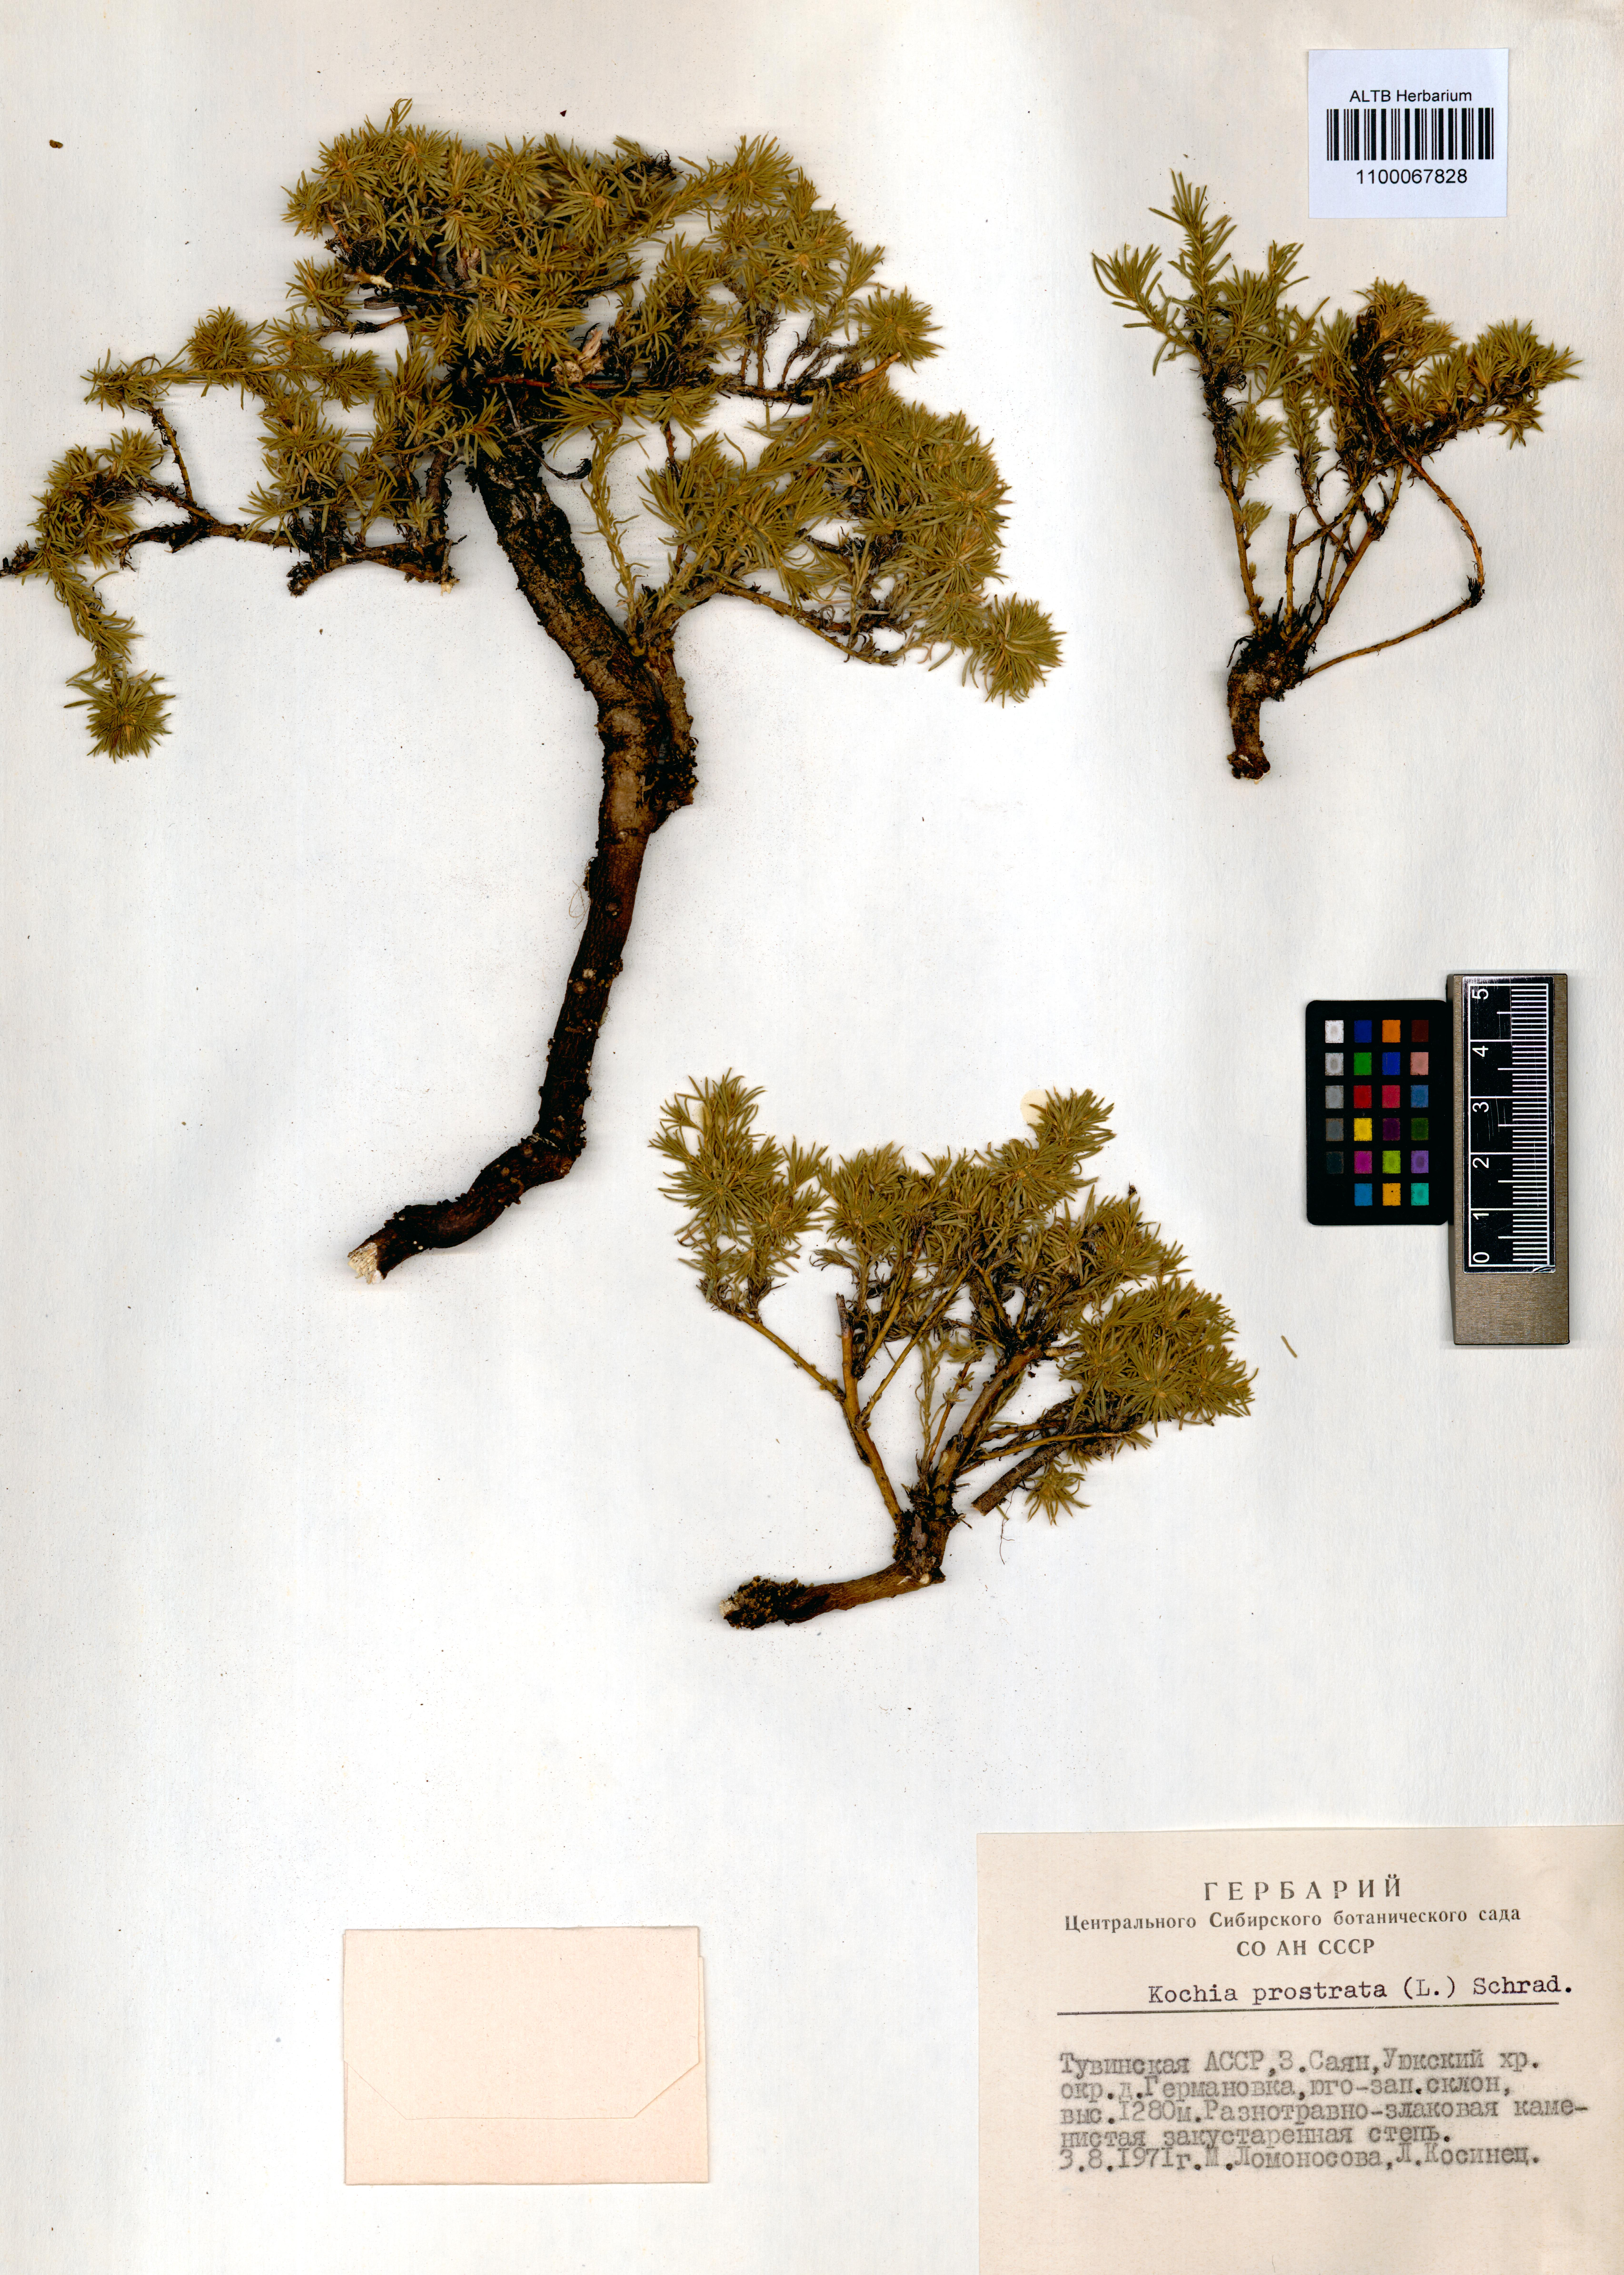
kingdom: Plantae
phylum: Tracheophyta
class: Magnoliopsida
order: Caryophyllales
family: Amaranthaceae
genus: Bassia
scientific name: Bassia prostrata
